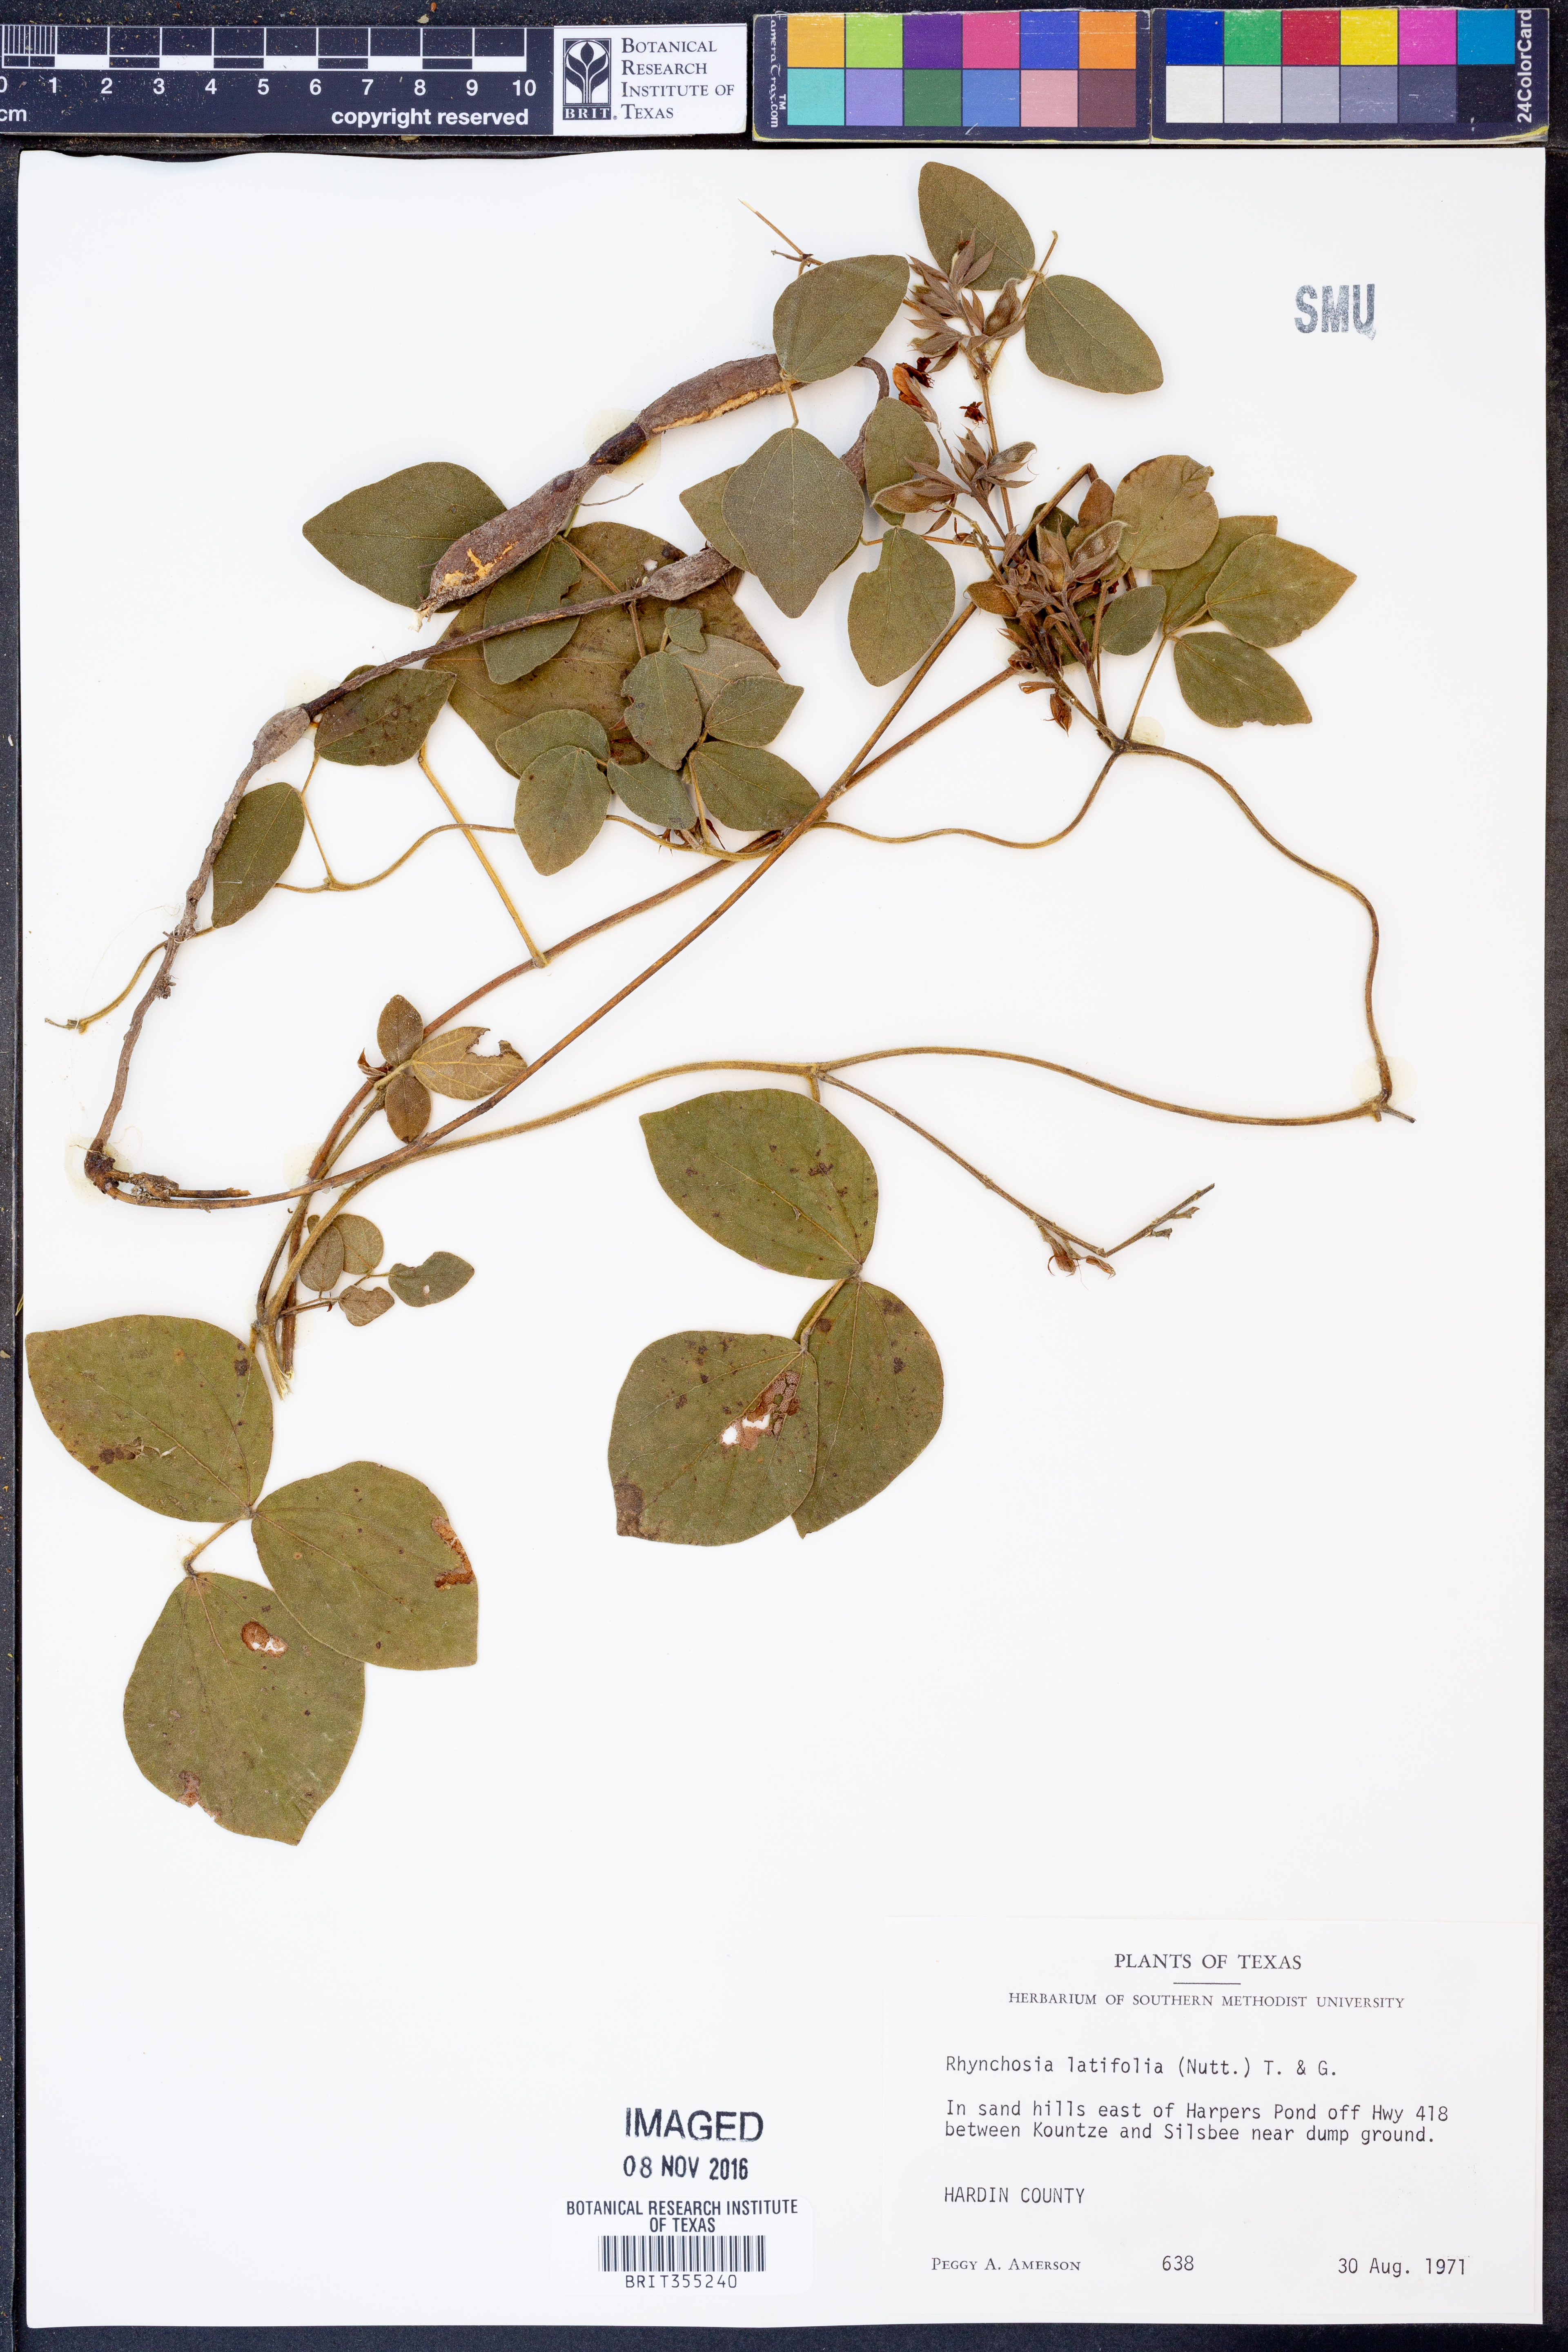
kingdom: Plantae
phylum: Tracheophyta
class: Magnoliopsida
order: Fabales
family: Fabaceae
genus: Rhynchosia
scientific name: Rhynchosia latifolia
